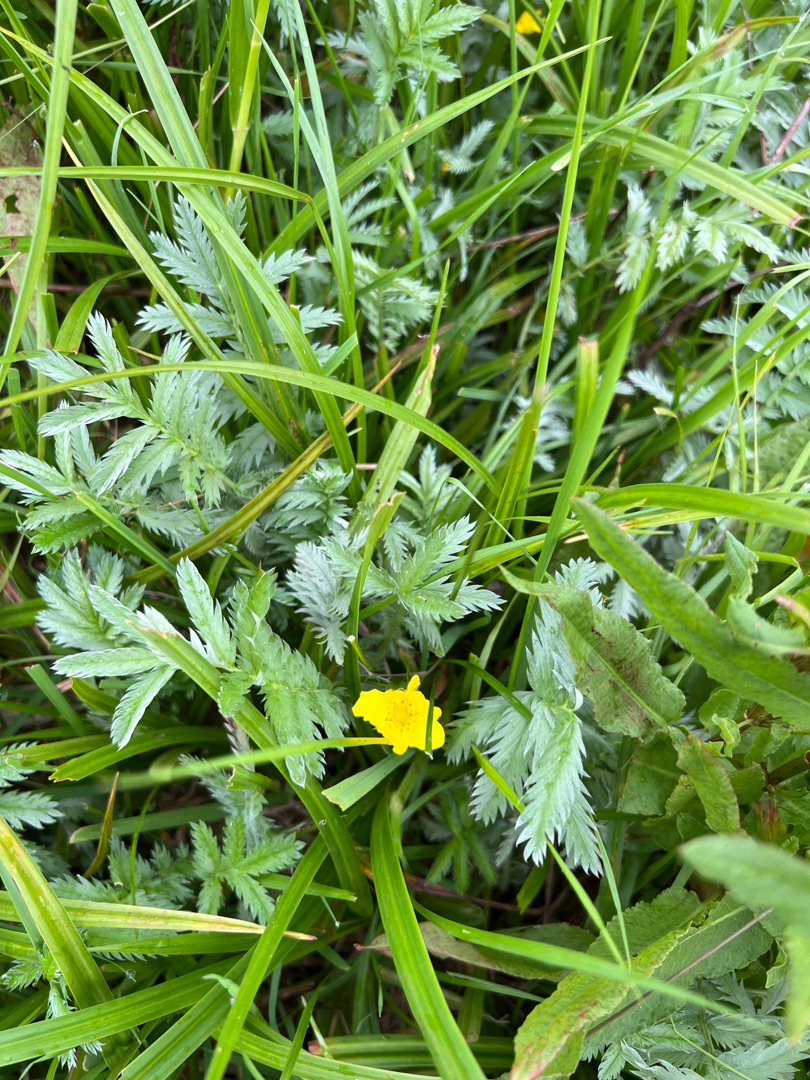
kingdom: Plantae
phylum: Tracheophyta
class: Magnoliopsida
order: Rosales
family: Rosaceae
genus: Argentina
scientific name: Argentina anserina
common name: Gåsepotentil
